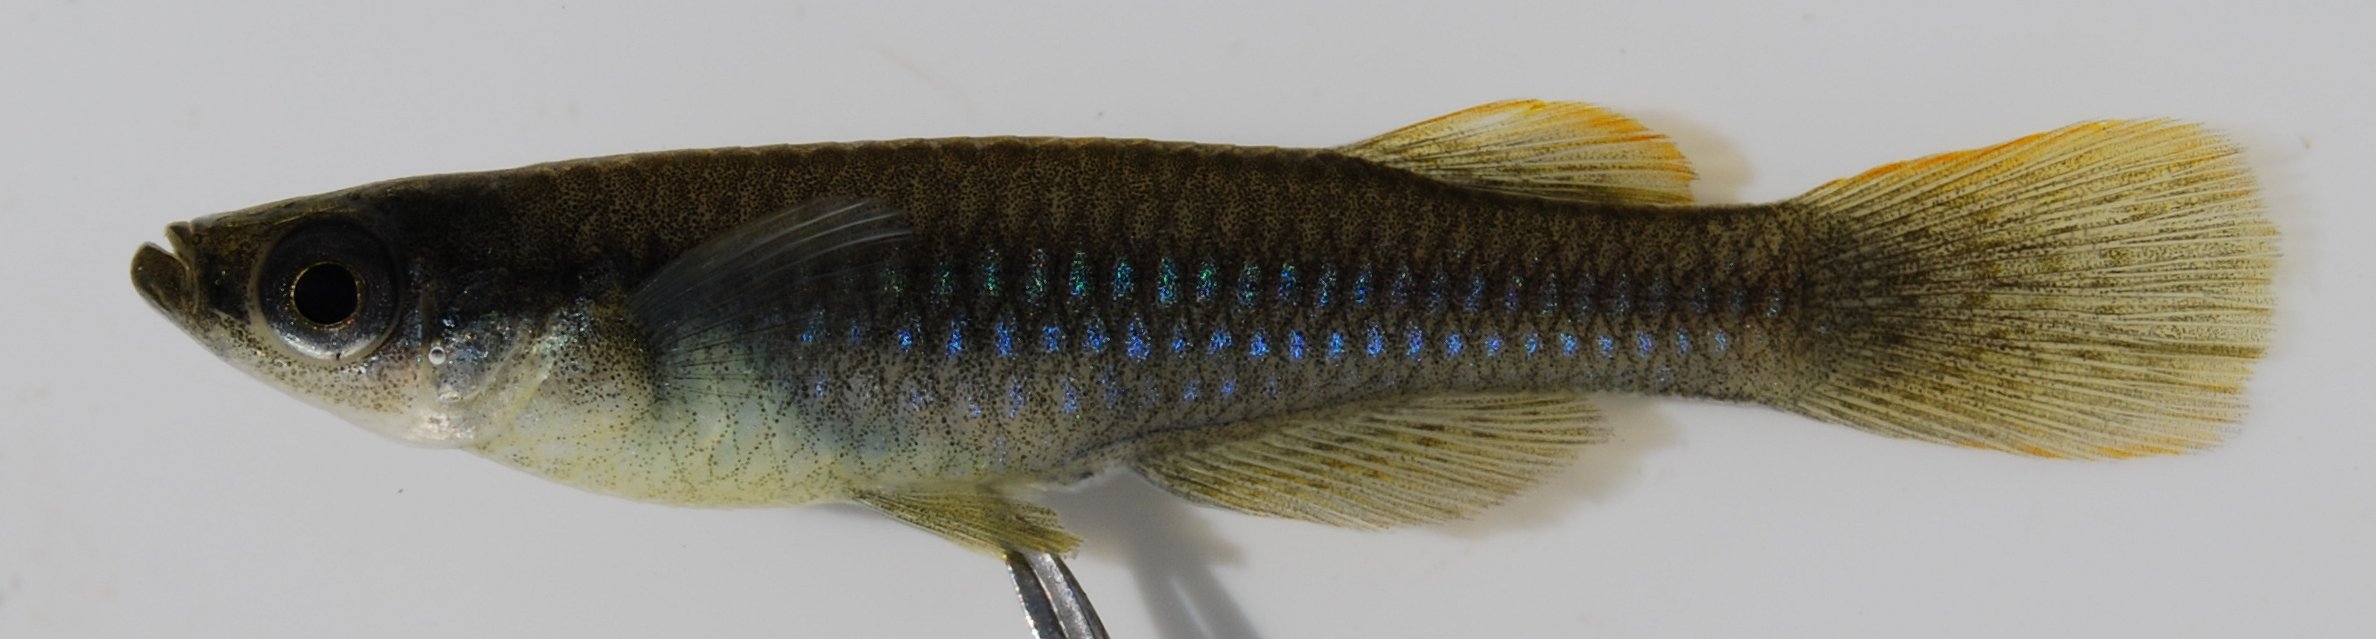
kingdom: Animalia
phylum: Chordata
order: Cyprinodontiformes
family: Poeciliidae
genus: Micropanchax
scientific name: Micropanchax johnstoni
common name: Johnston's topminnow
